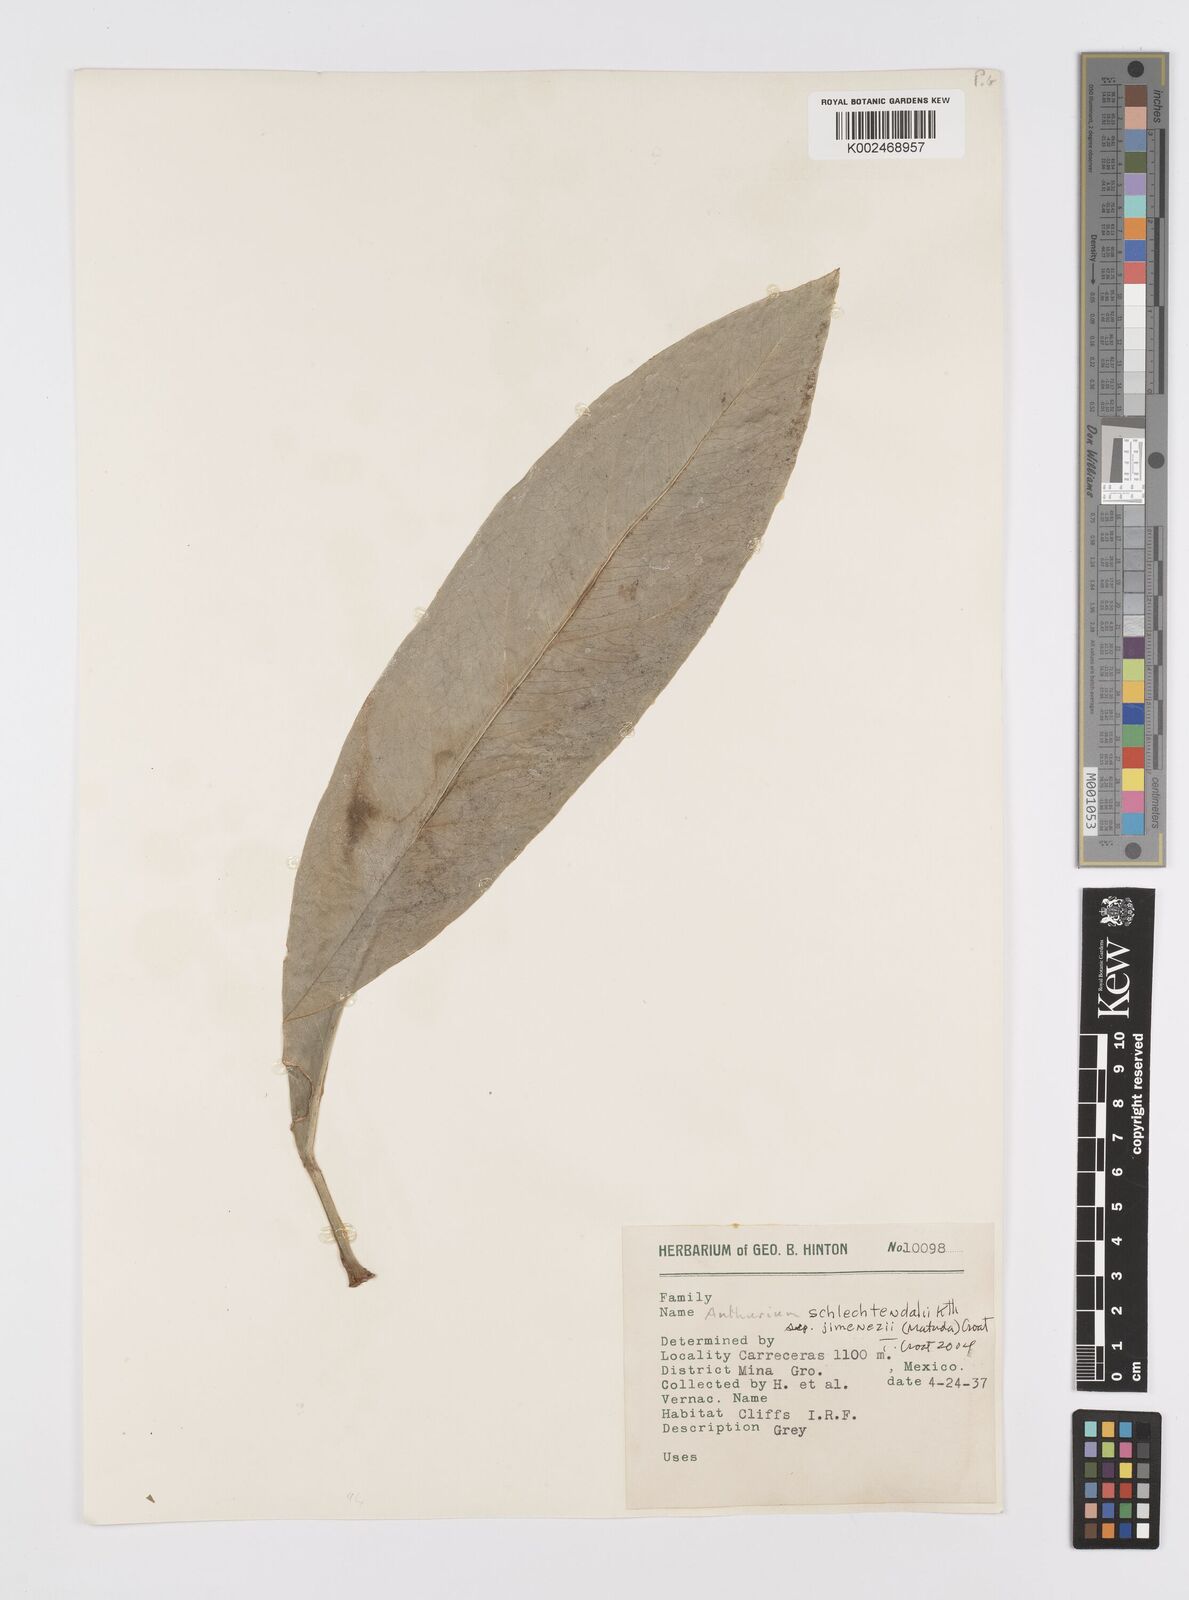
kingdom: Plantae
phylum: Tracheophyta
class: Liliopsida
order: Alismatales
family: Araceae
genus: Anthurium
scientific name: Anthurium schlechtendalii
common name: Laceleaf
